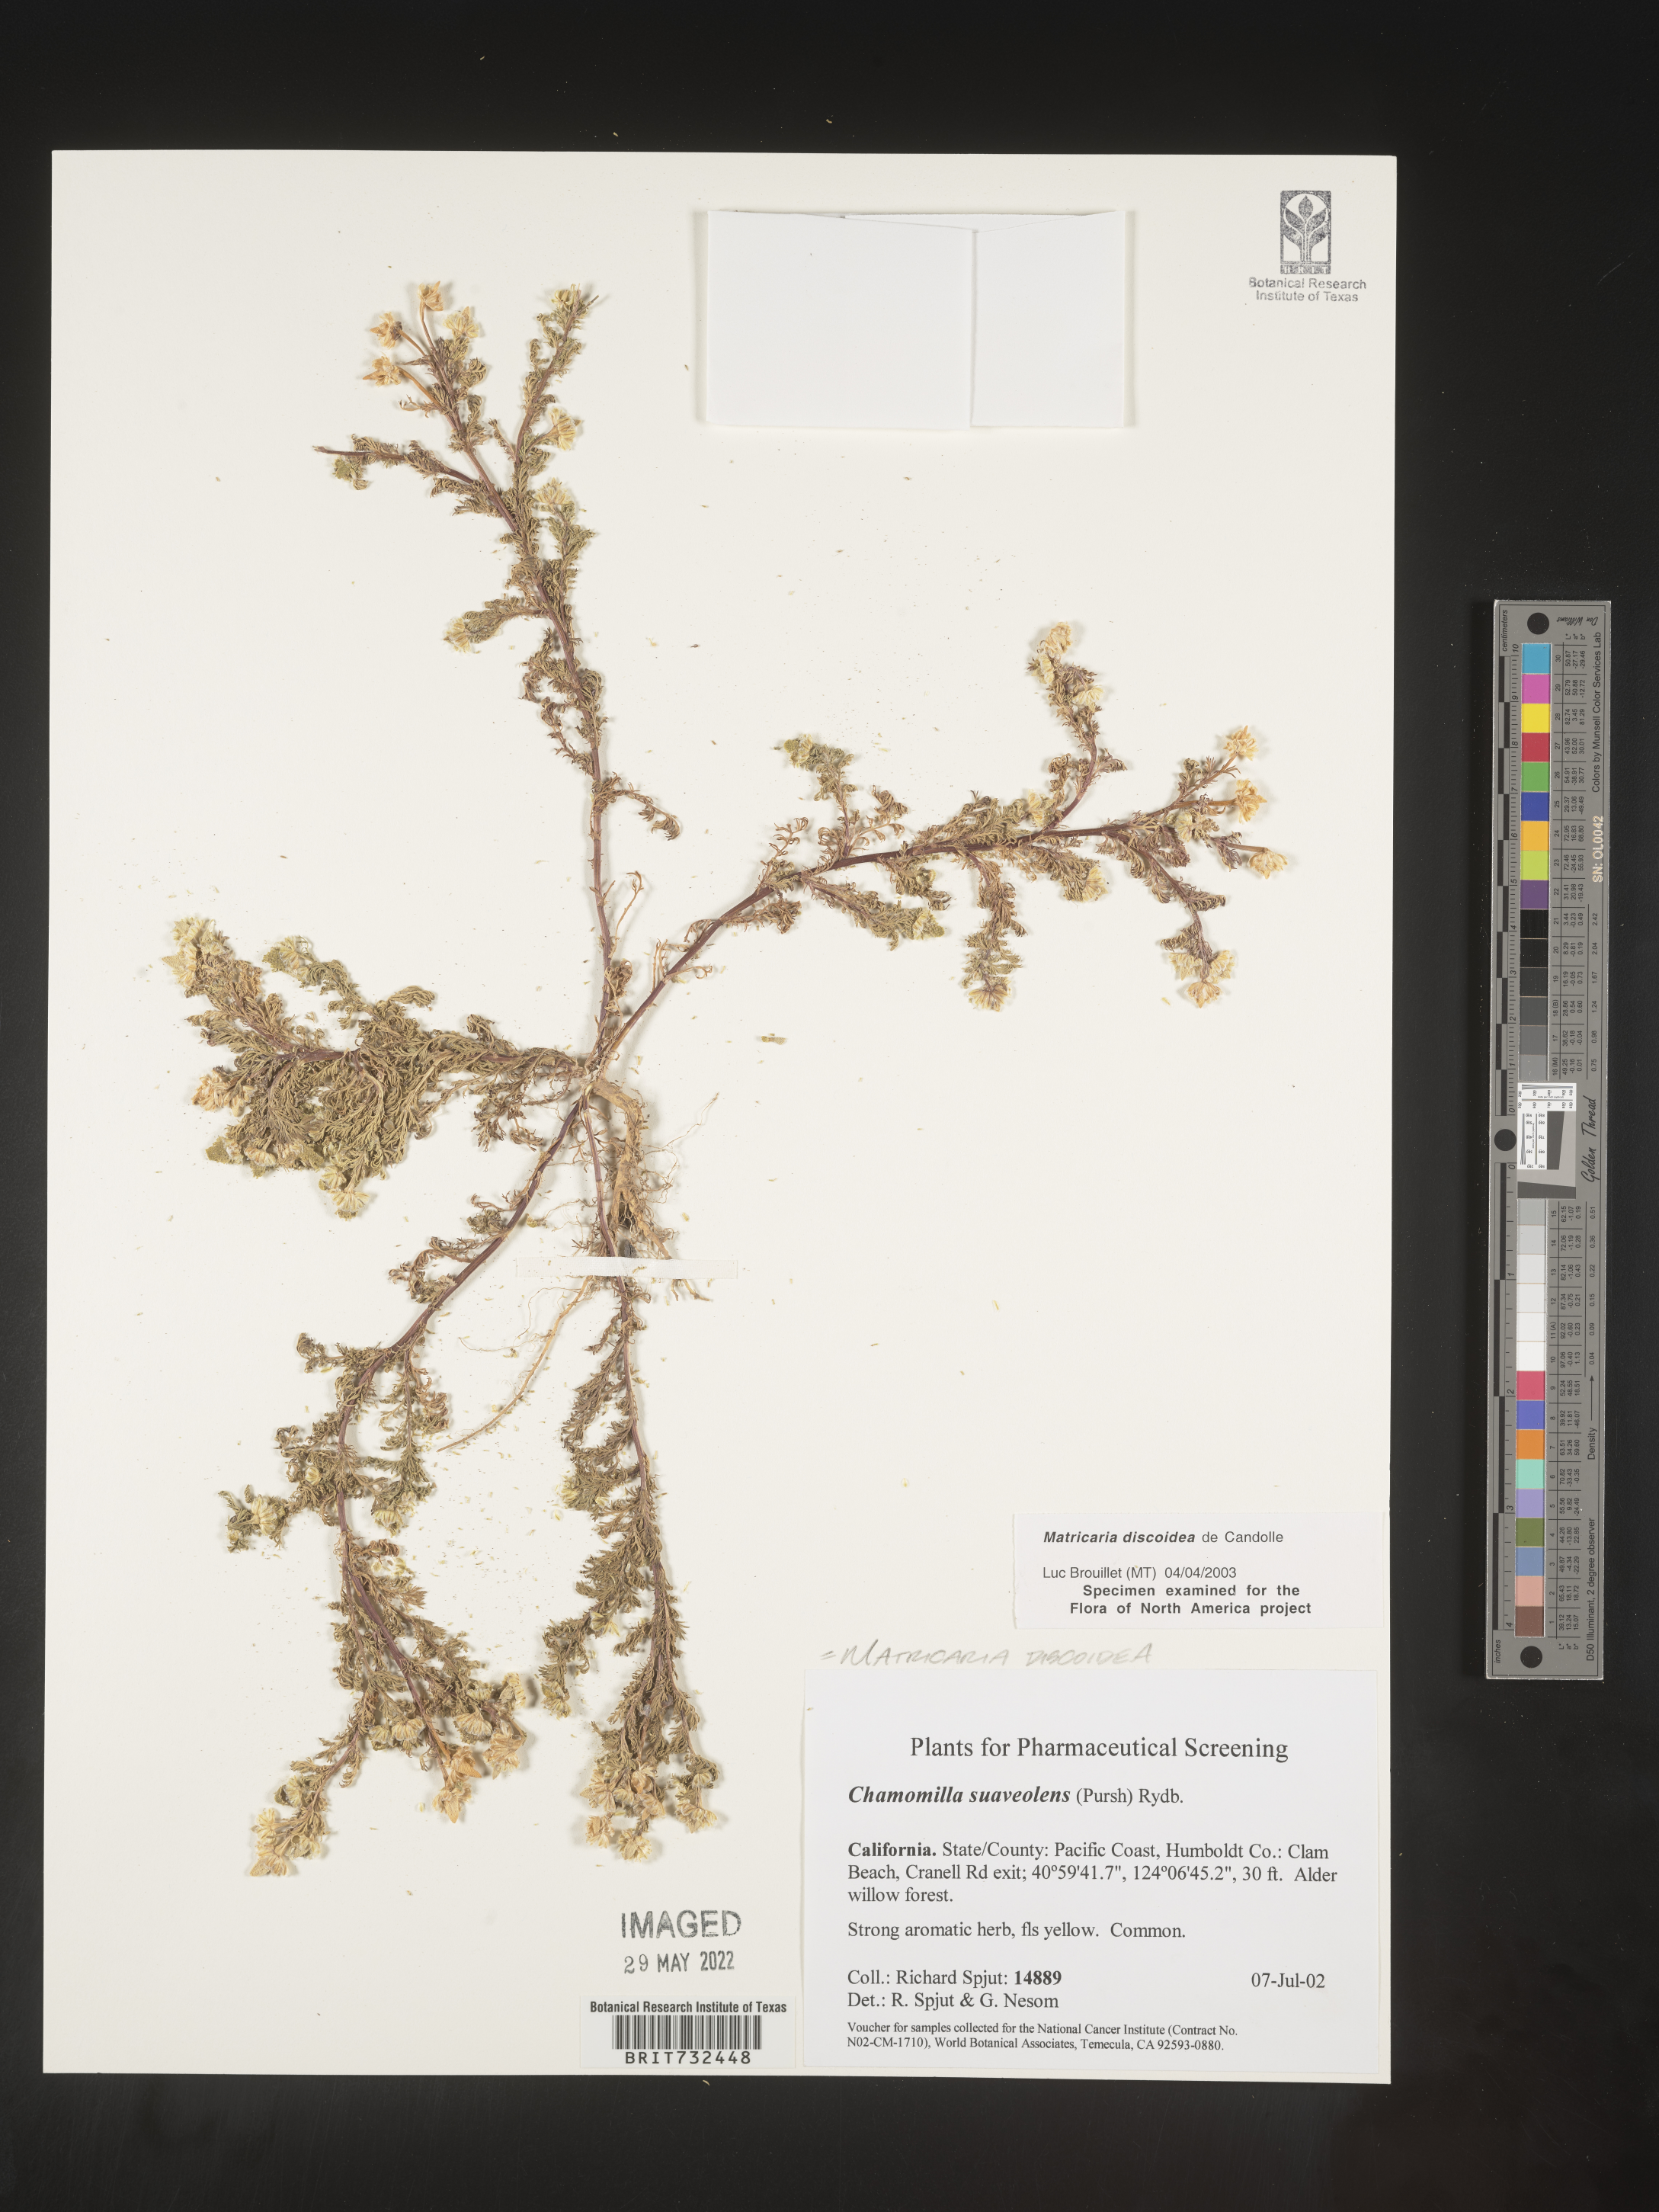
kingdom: Plantae
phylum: Tracheophyta
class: Magnoliopsida
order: Asterales
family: Asteraceae
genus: Matricaria
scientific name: Matricaria discoidea
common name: Disc mayweed
